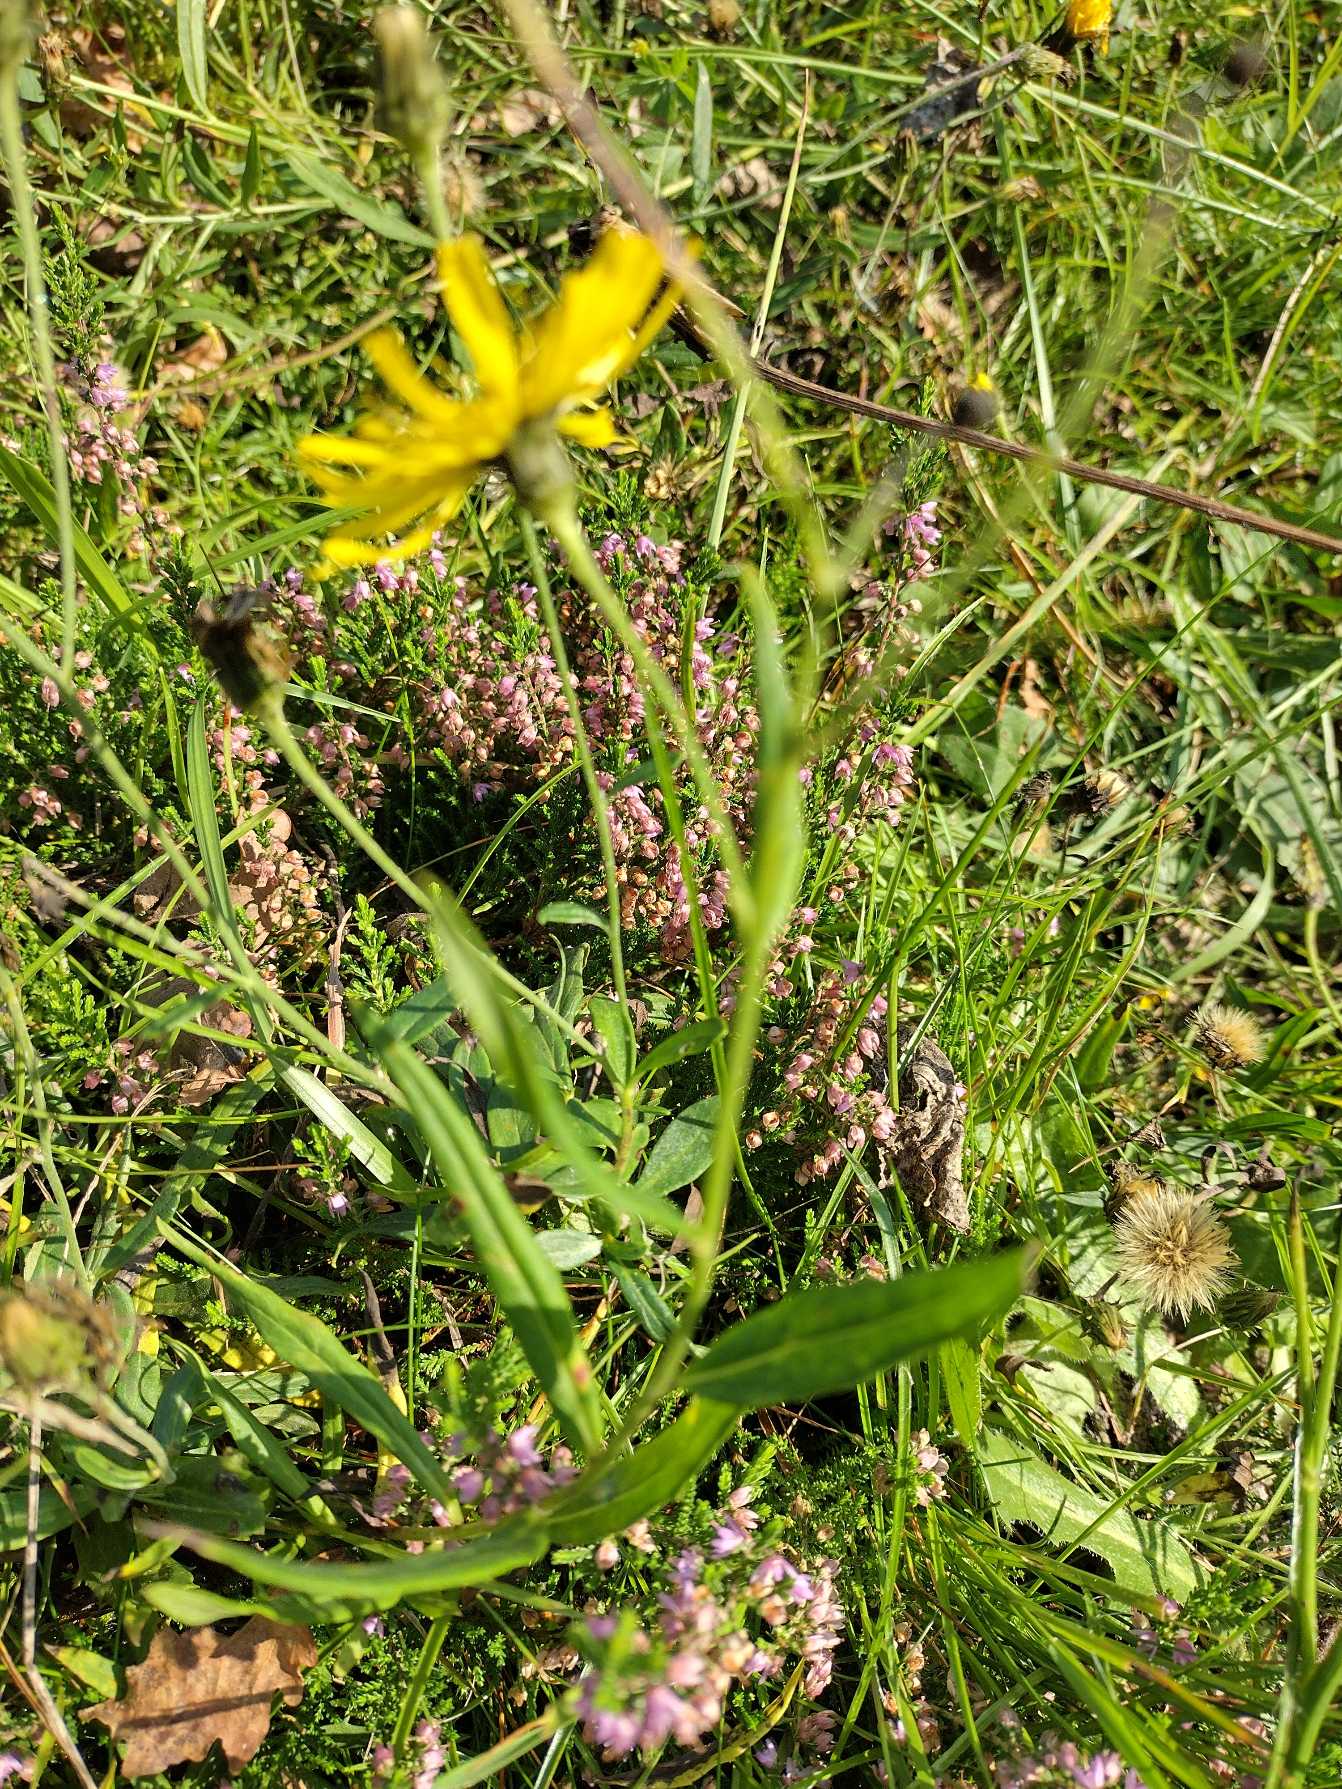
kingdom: Plantae
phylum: Tracheophyta
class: Magnoliopsida
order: Asterales
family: Asteraceae
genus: Hieracium
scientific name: Hieracium umbellatum
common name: Smalbladet høgeurt
